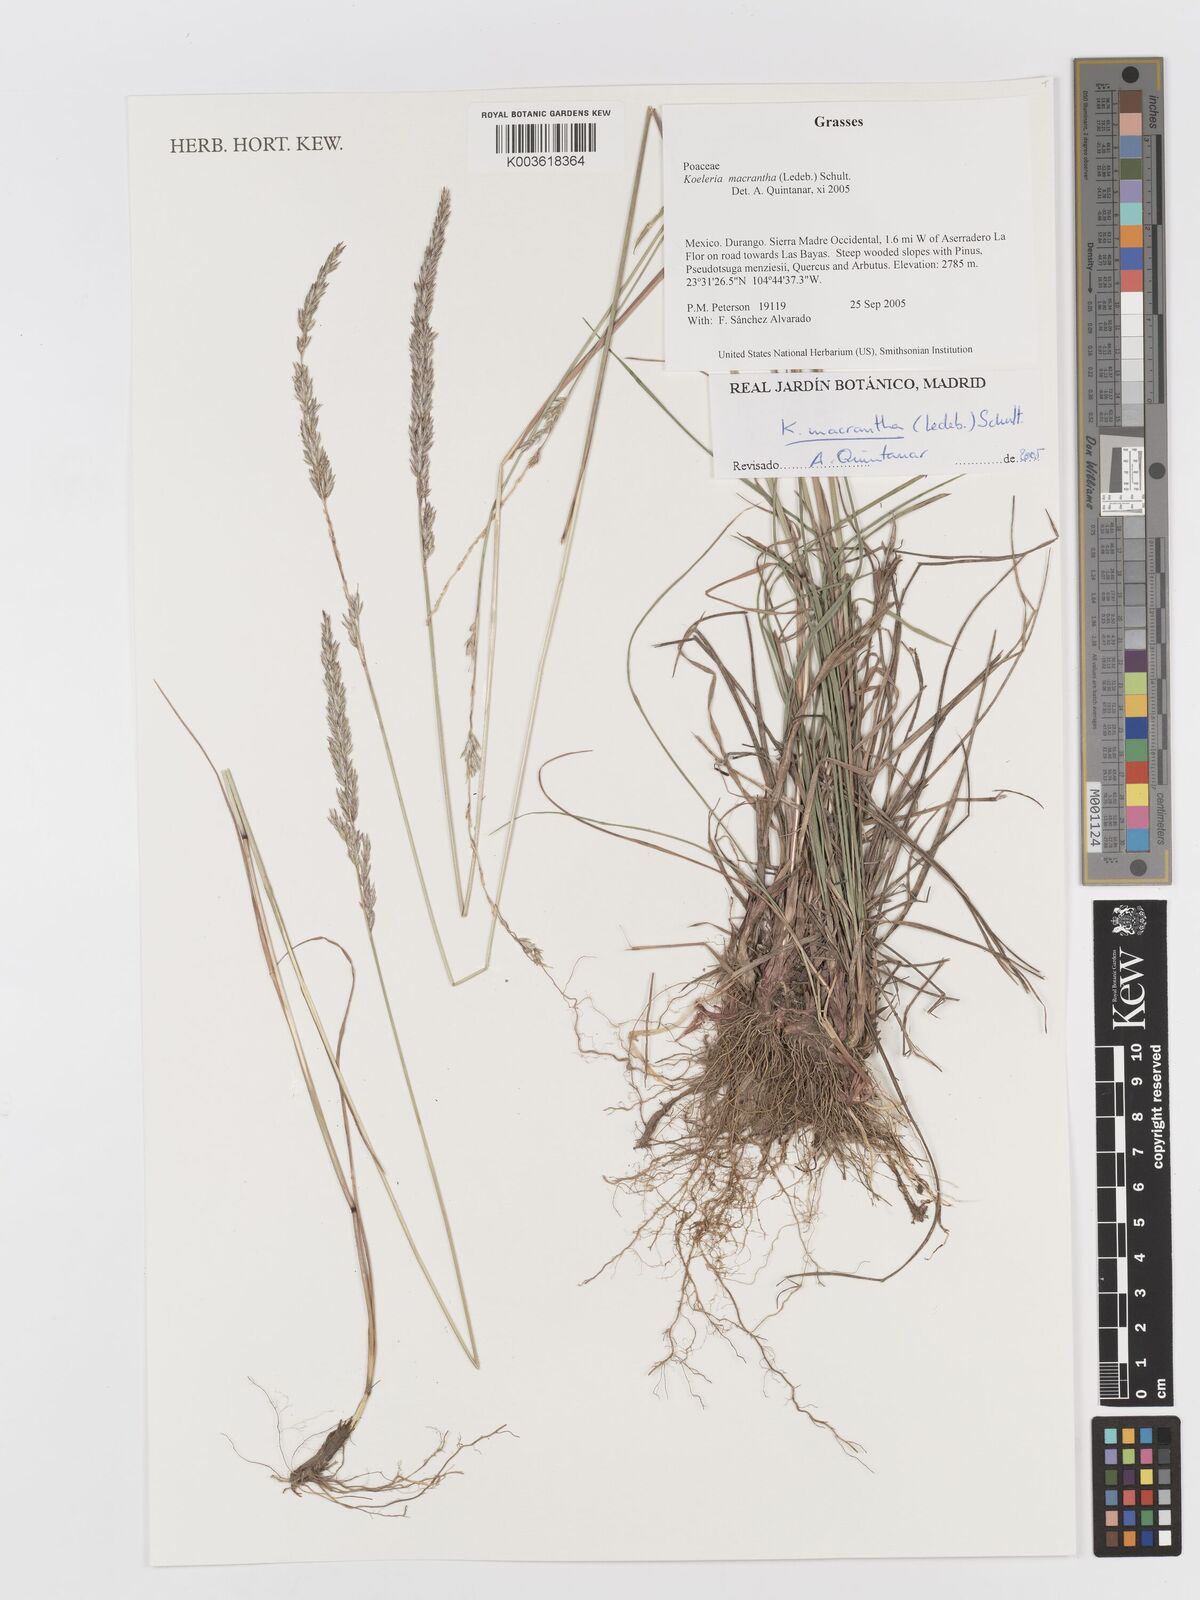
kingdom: Plantae
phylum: Tracheophyta
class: Liliopsida
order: Poales
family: Poaceae
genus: Koeleria
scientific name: Koeleria pyramidata
